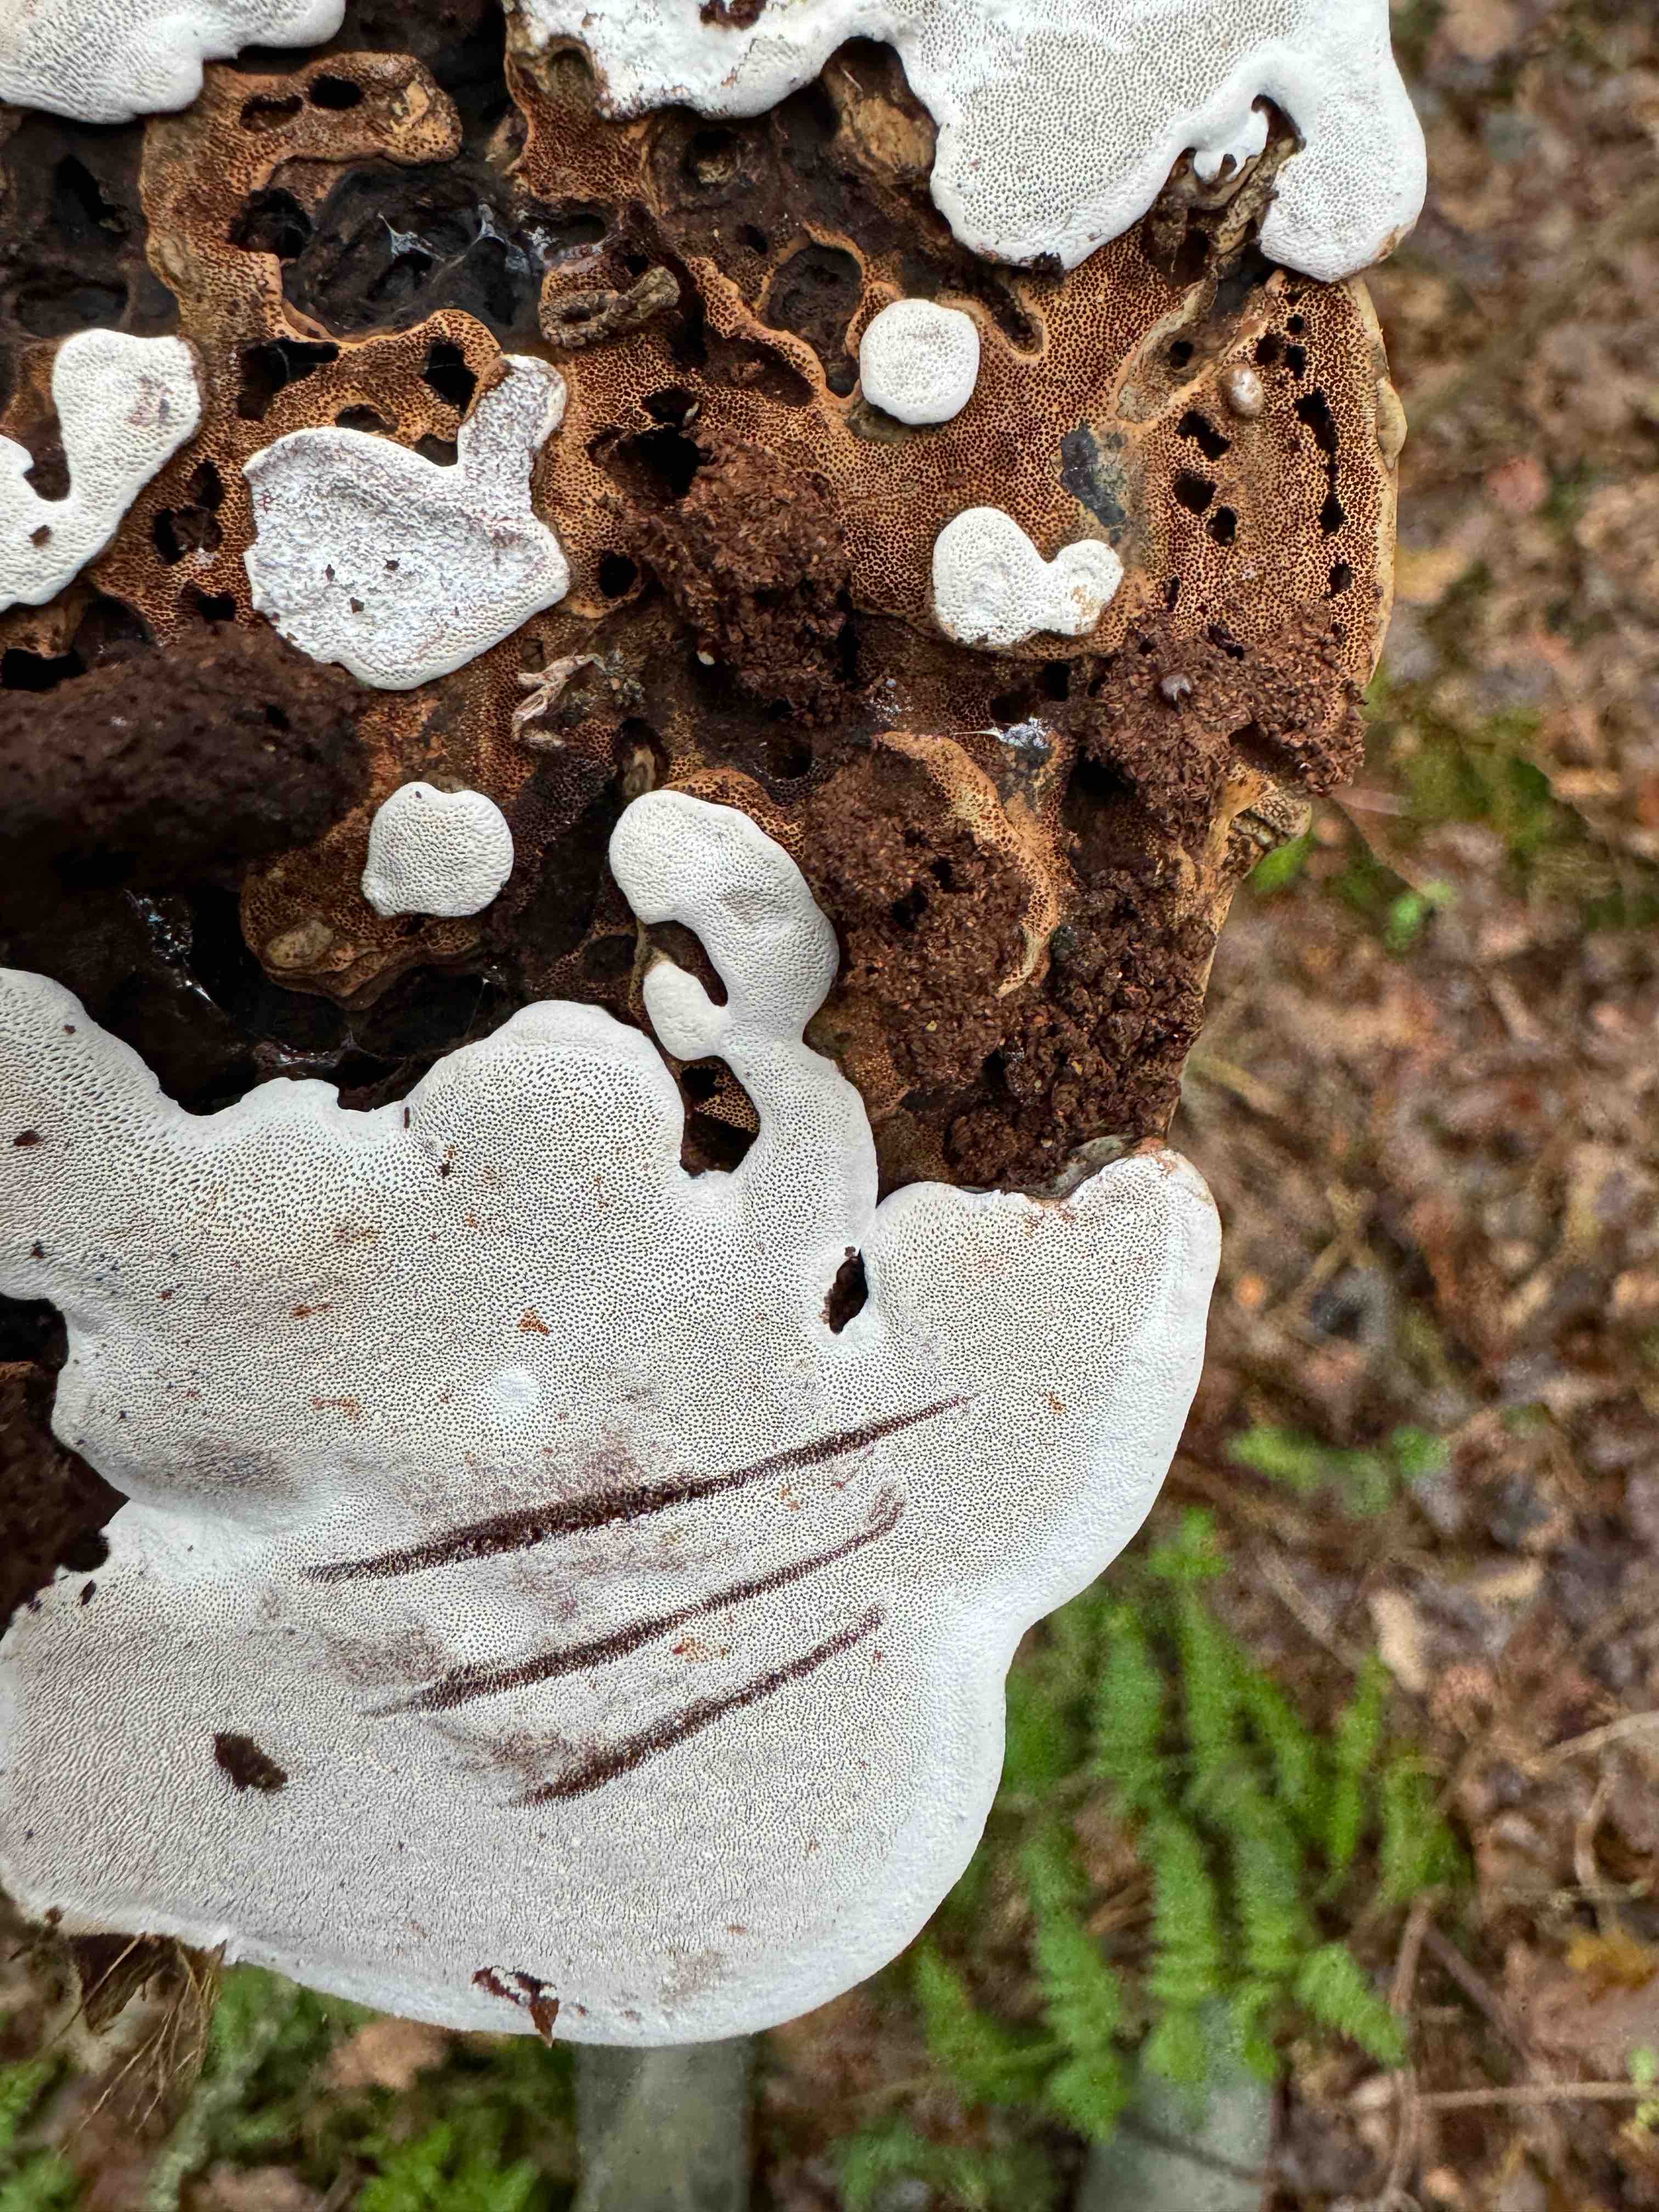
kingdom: Fungi
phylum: Basidiomycota
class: Agaricomycetes
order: Polyporales
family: Polyporaceae
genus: Ganoderma
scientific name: Ganoderma applanatum
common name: flad lakporesvamp
